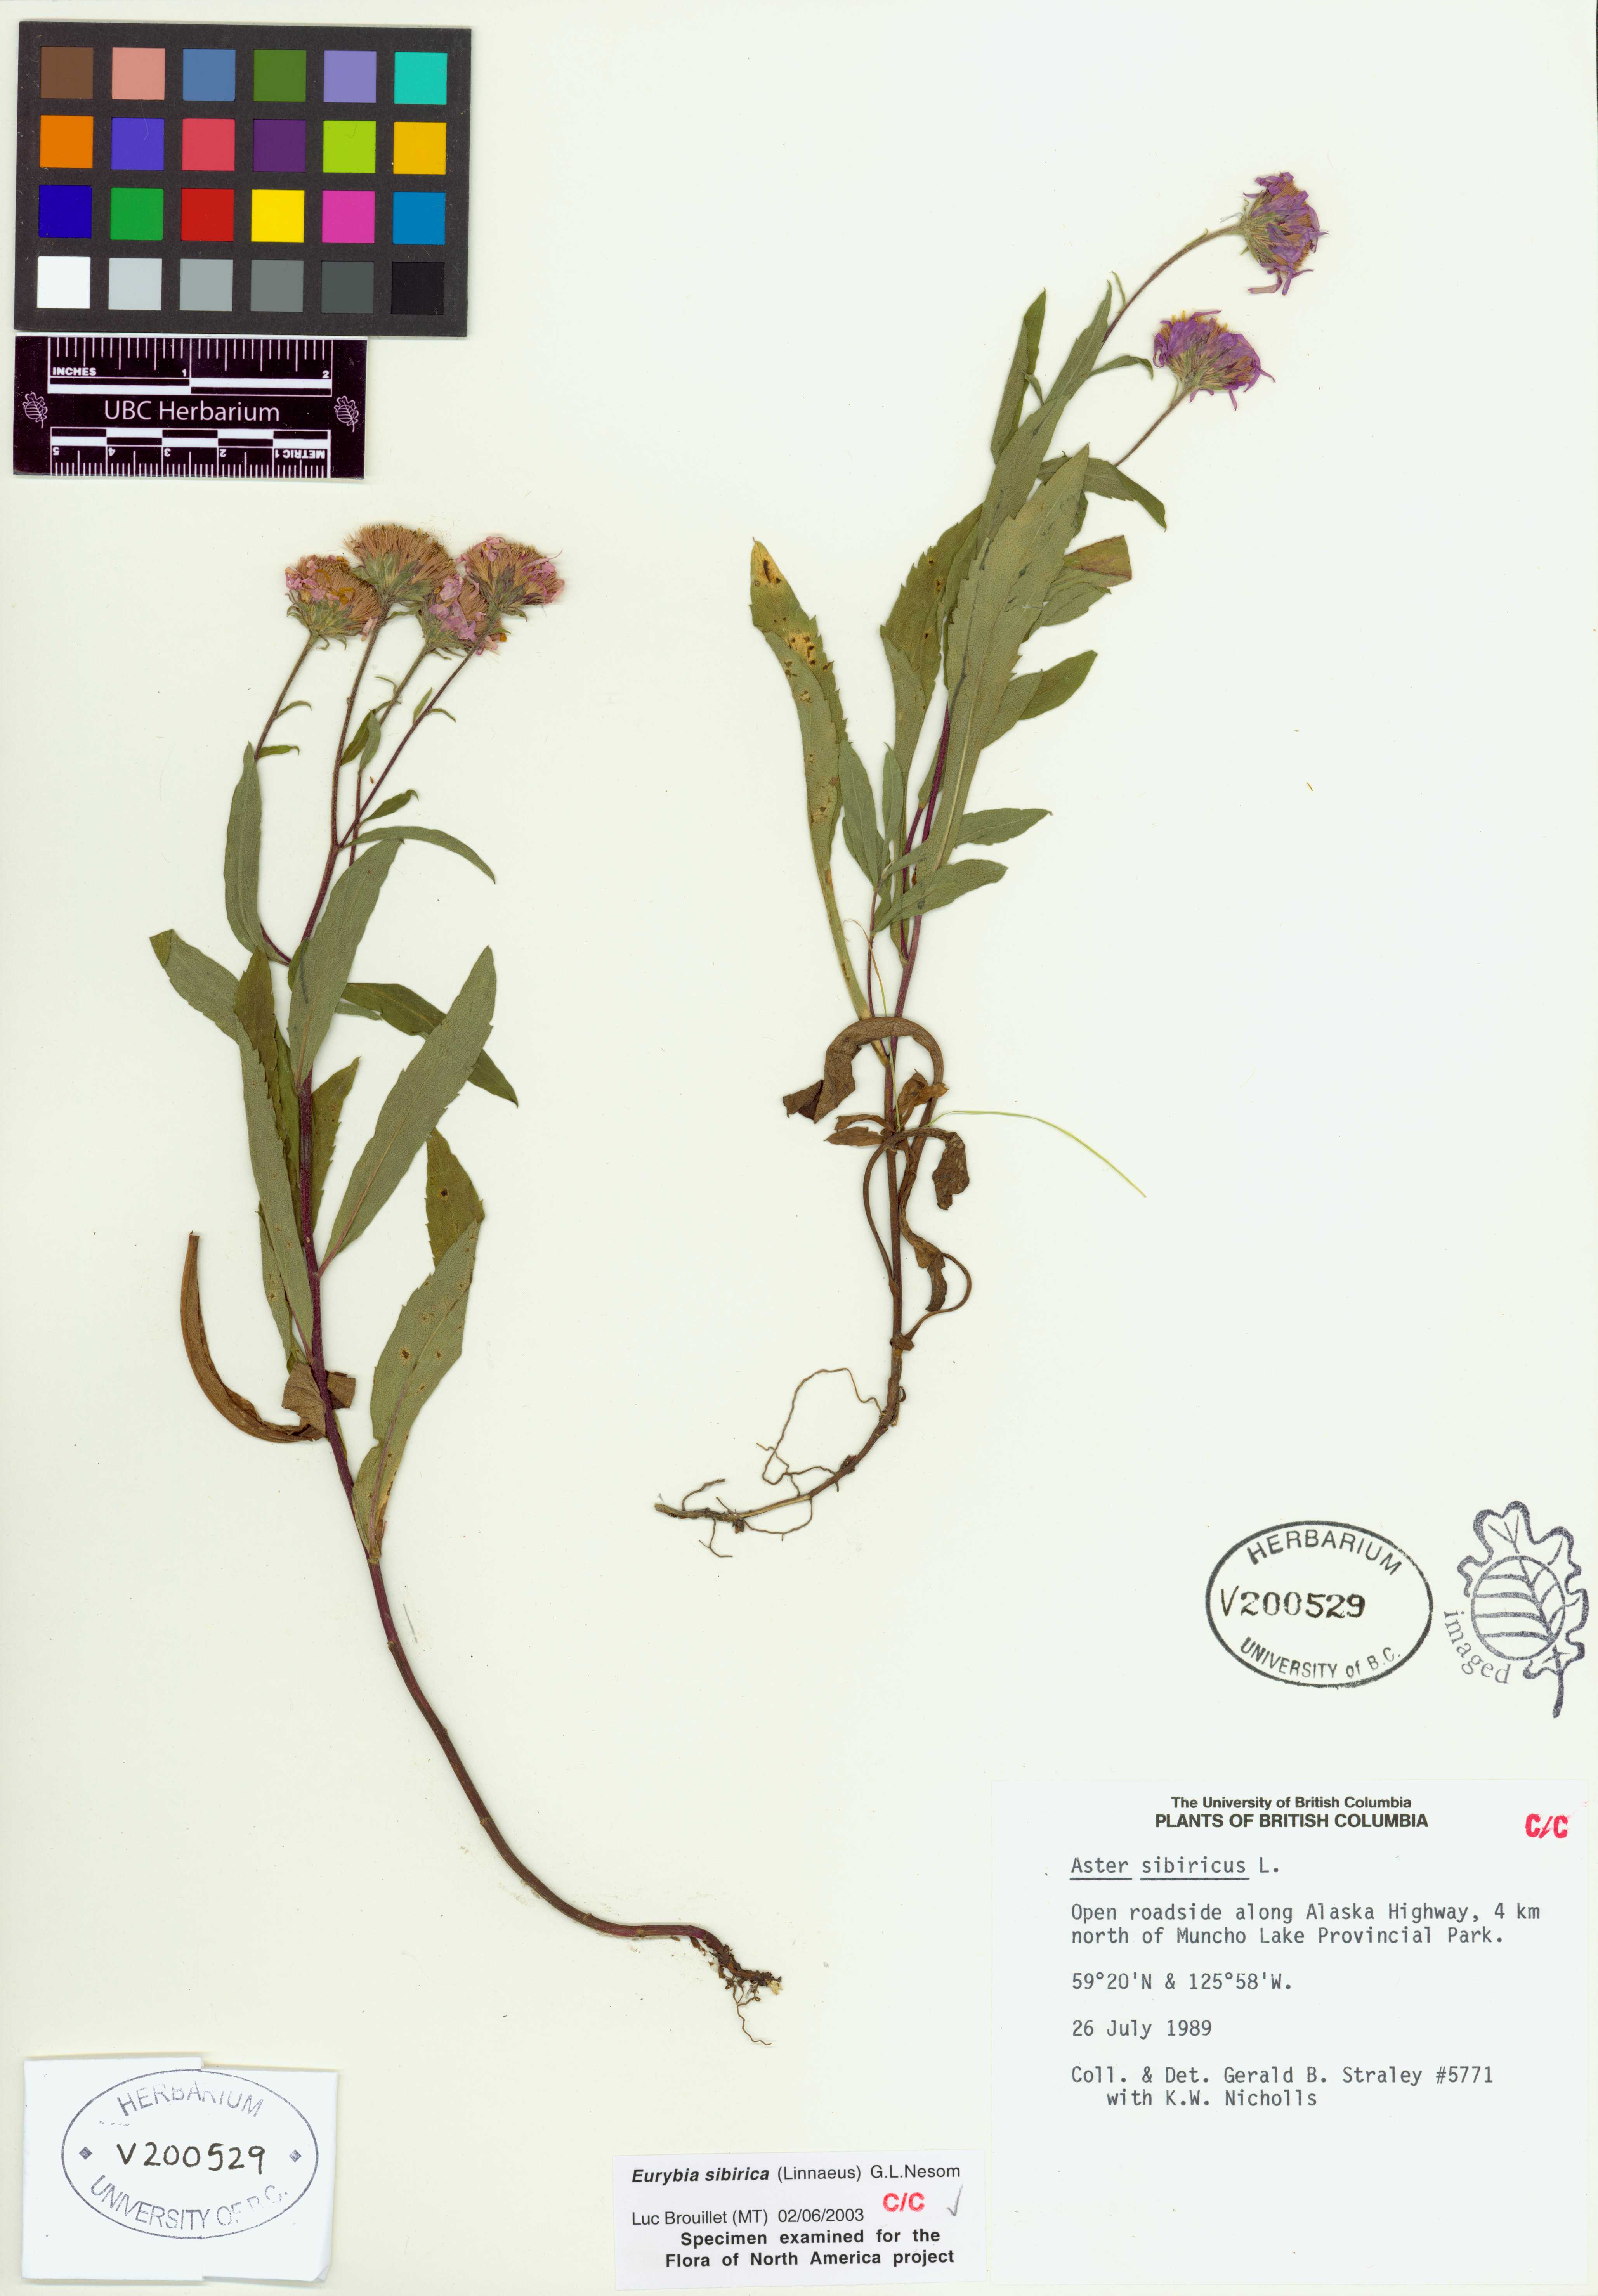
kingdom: Plantae
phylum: Tracheophyta
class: Magnoliopsida
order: Asterales
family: Asteraceae
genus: Eurybia
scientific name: Eurybia sibirica
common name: Arctic aster
